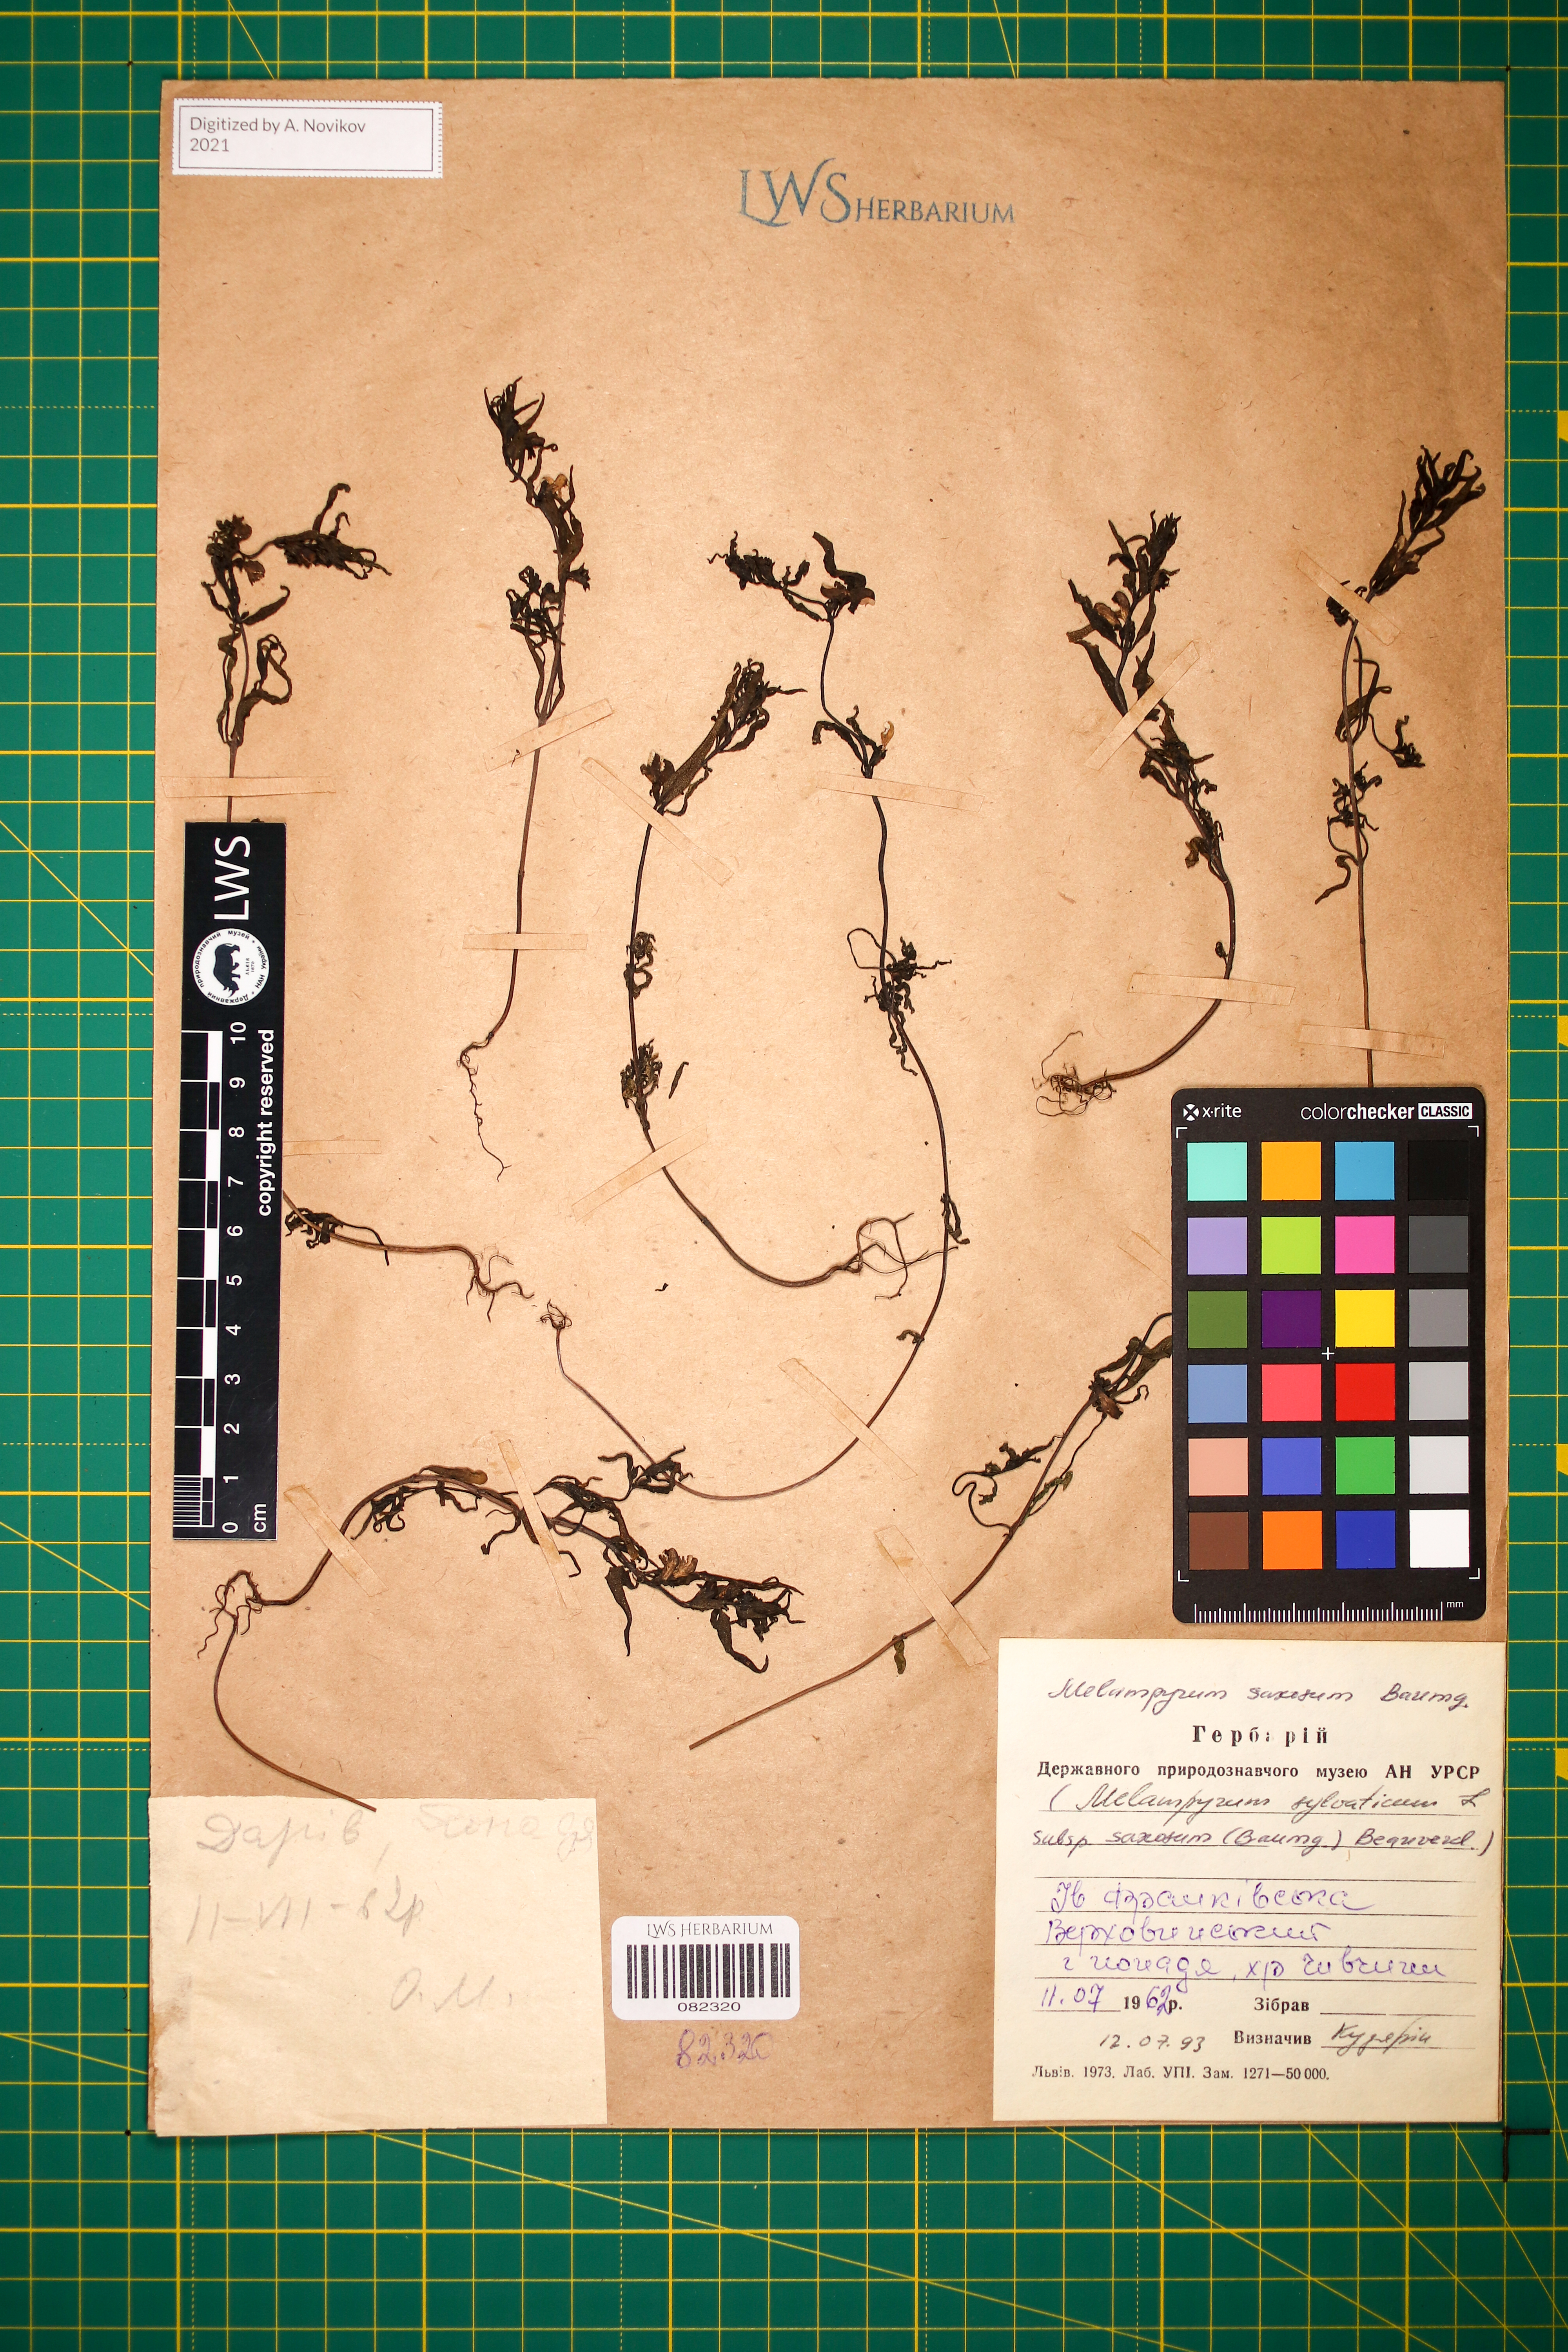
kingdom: Plantae
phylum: Tracheophyta
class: Magnoliopsida
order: Lamiales
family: Orobanchaceae
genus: Melampyrum
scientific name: Melampyrum saxosum
